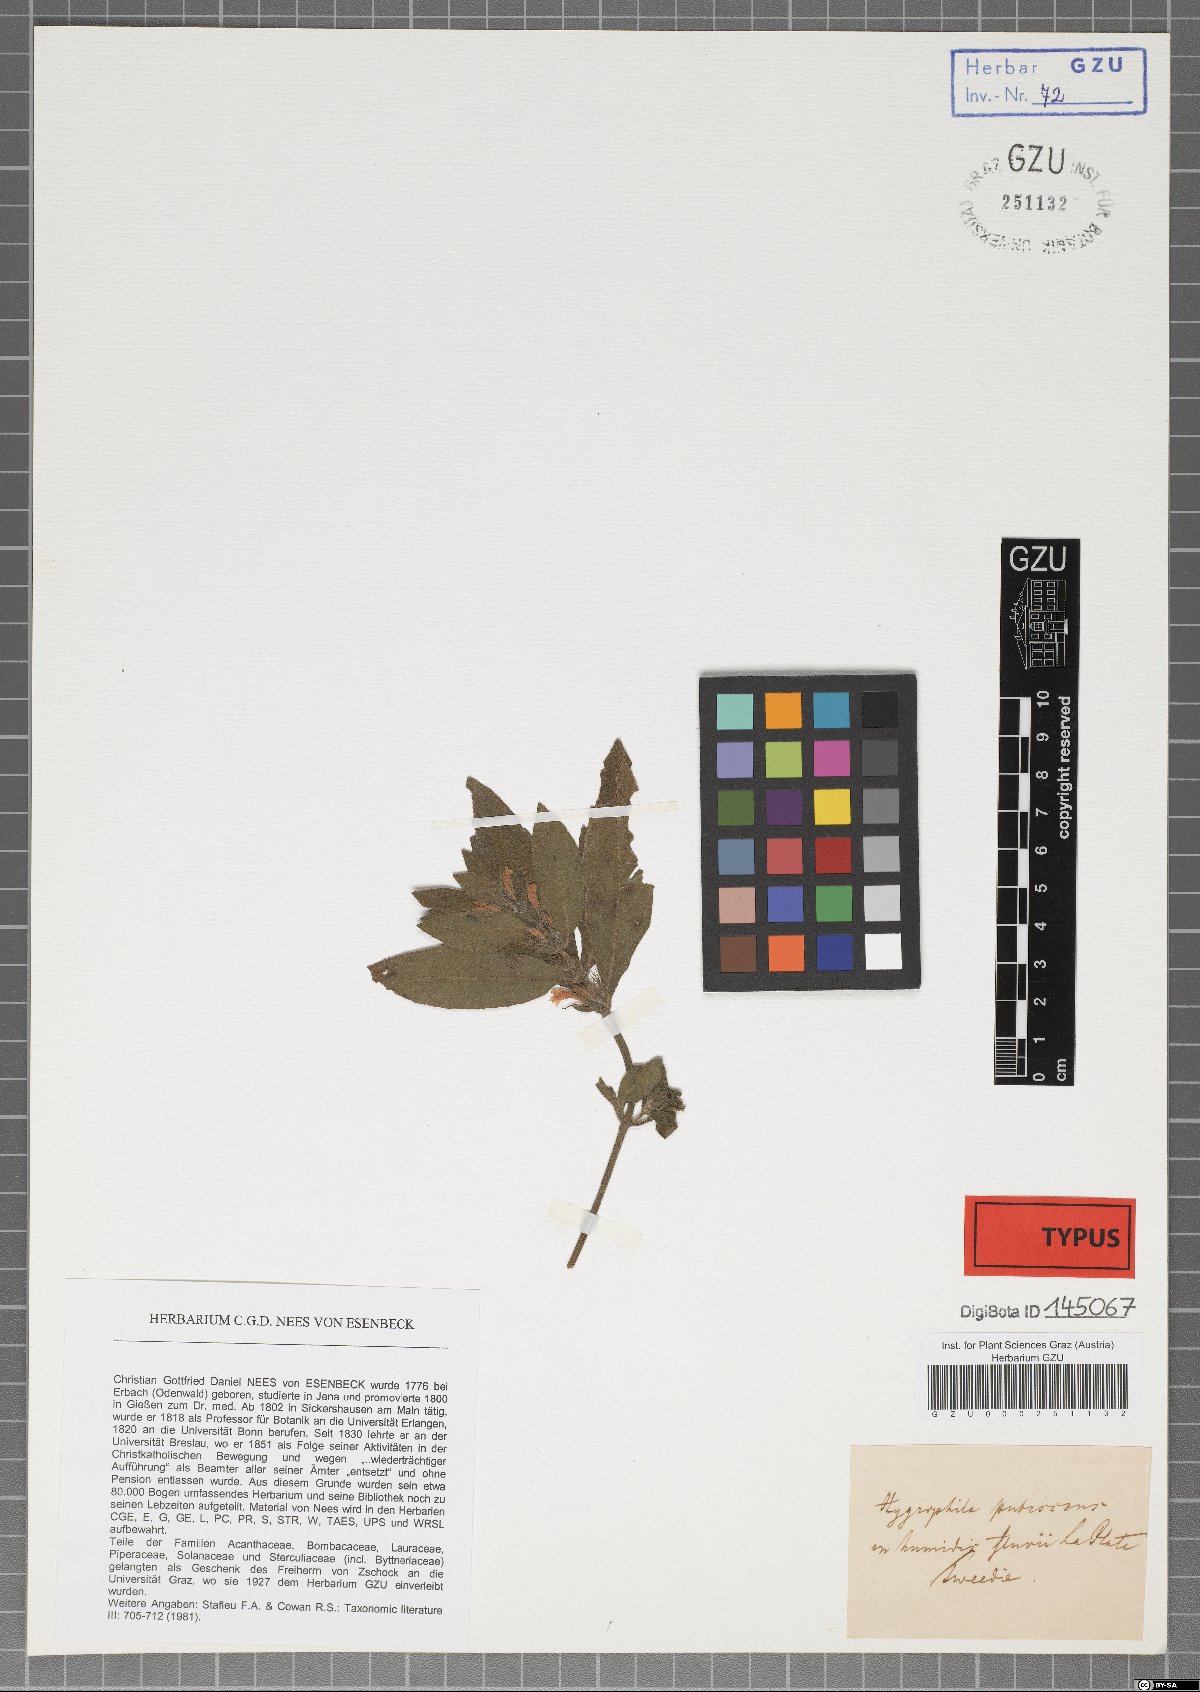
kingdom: Plantae
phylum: Tracheophyta
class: Magnoliopsida
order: Lamiales
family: Acanthaceae
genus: Hygrophila
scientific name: Hygrophila costata
